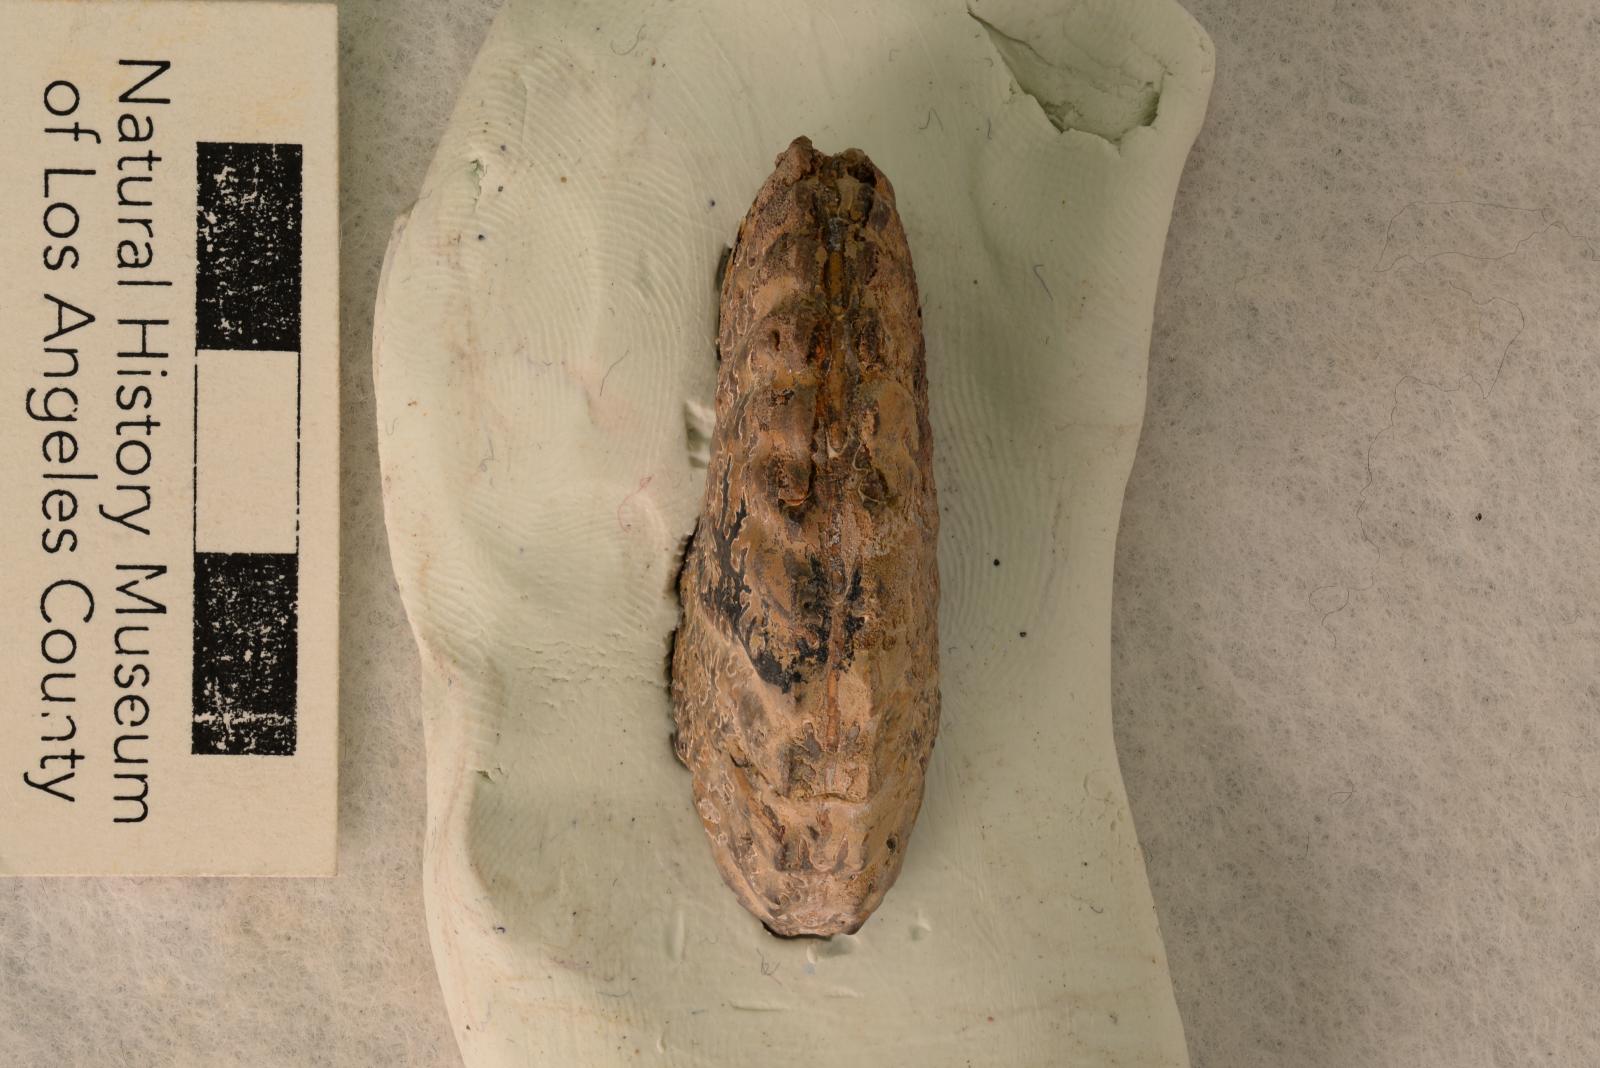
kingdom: Animalia
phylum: Mollusca
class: Cephalopoda
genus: Heinzia
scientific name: Heinzia Pulchellia popenoei
